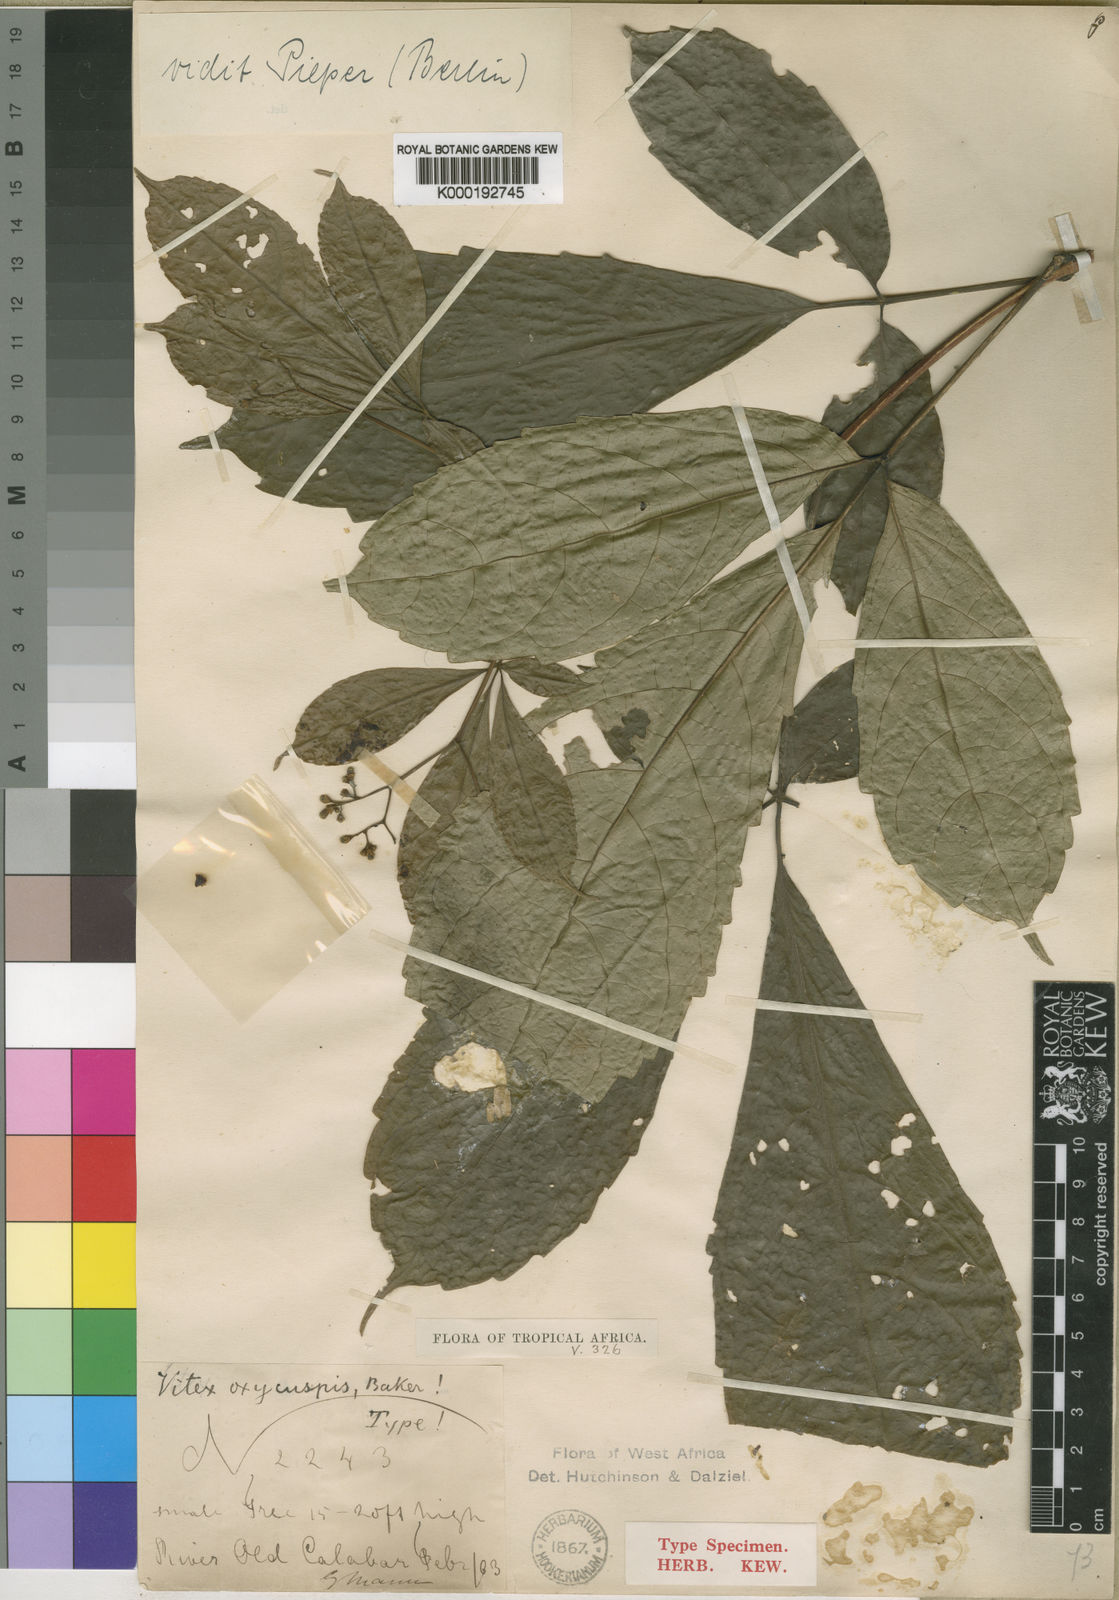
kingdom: Plantae
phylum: Tracheophyta
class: Magnoliopsida
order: Lamiales
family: Lamiaceae
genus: Vitex
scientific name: Vitex oxycuspis
